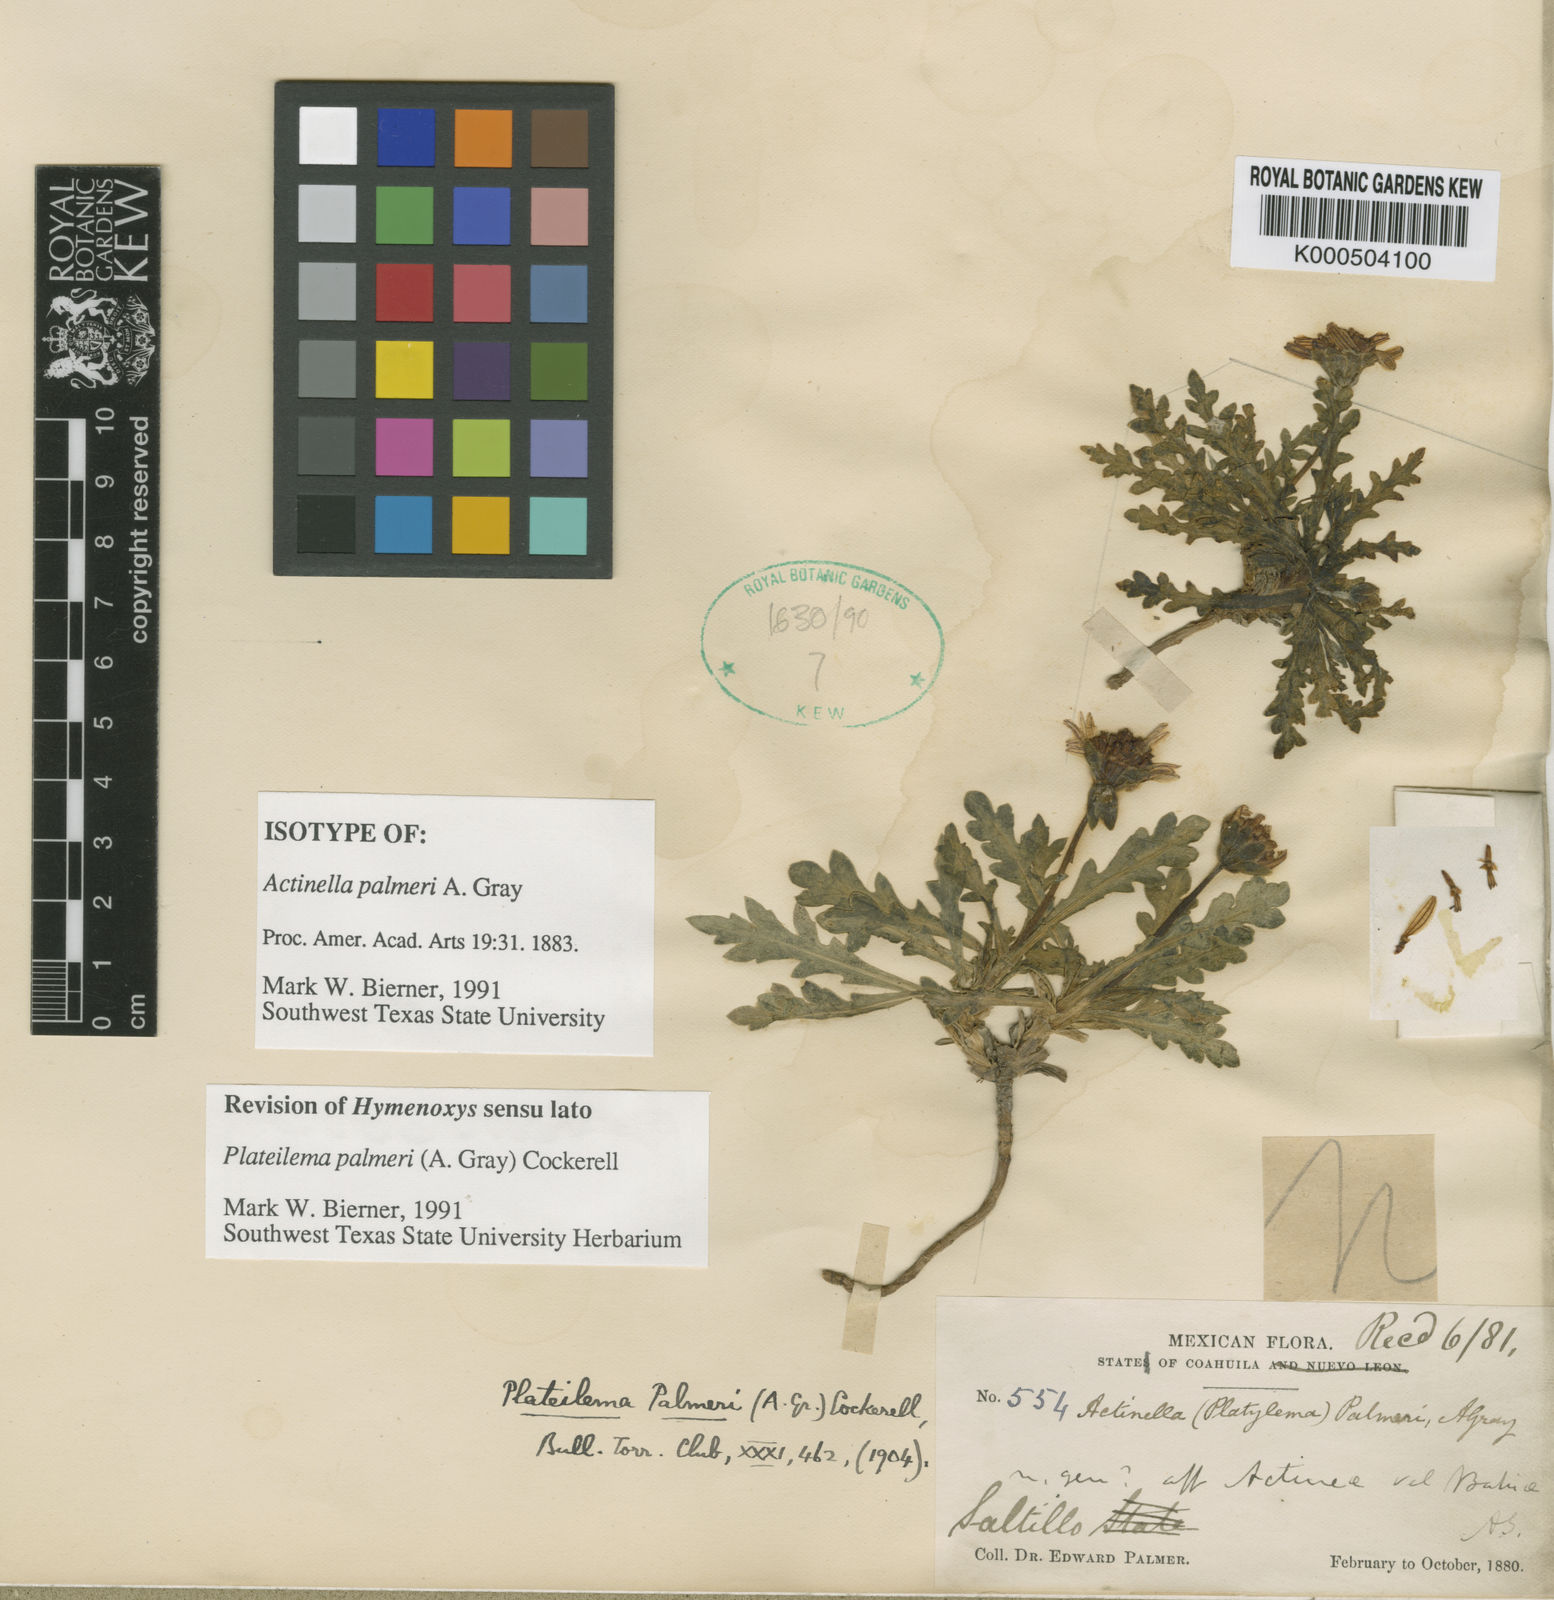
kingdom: Plantae
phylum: Tracheophyta
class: Magnoliopsida
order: Asterales
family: Asteraceae
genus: Plateilema
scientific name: Plateilema palmeri
